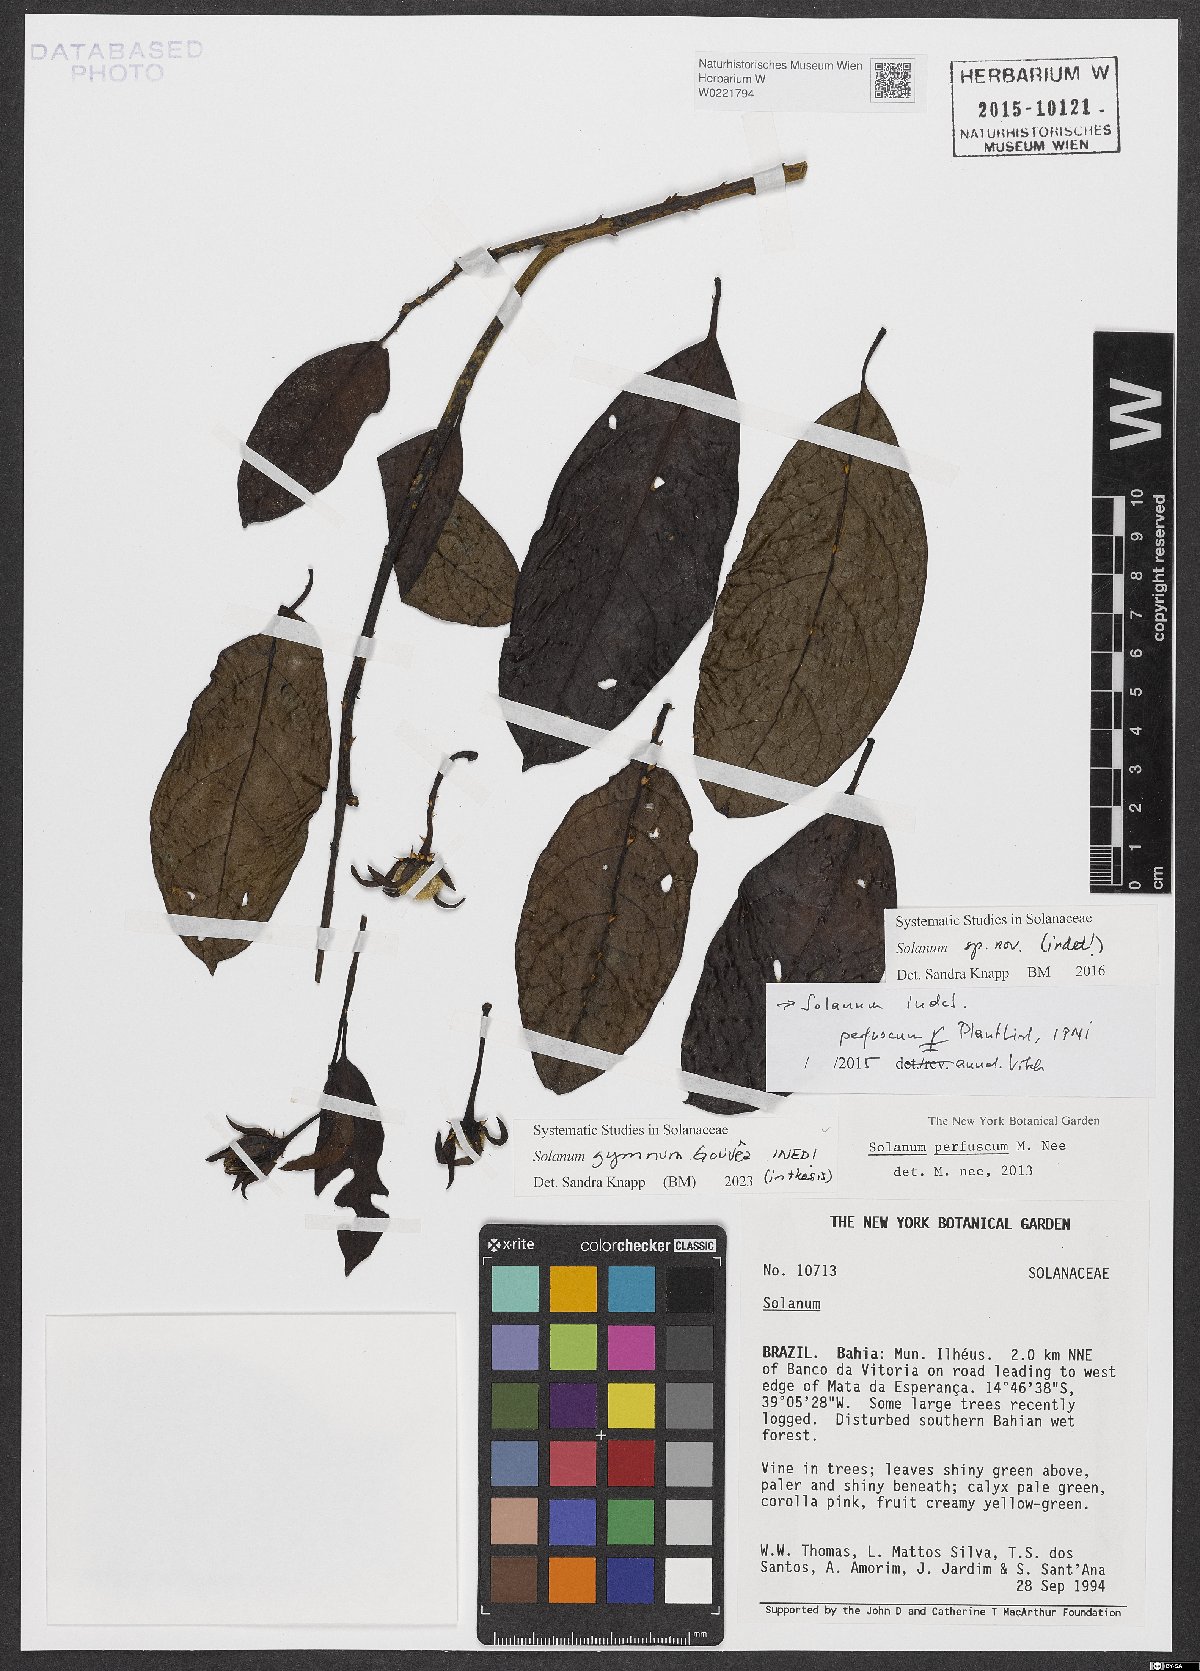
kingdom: Plantae
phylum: Tracheophyta
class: Magnoliopsida
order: Solanales
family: Solanaceae
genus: Solanum
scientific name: Solanum
